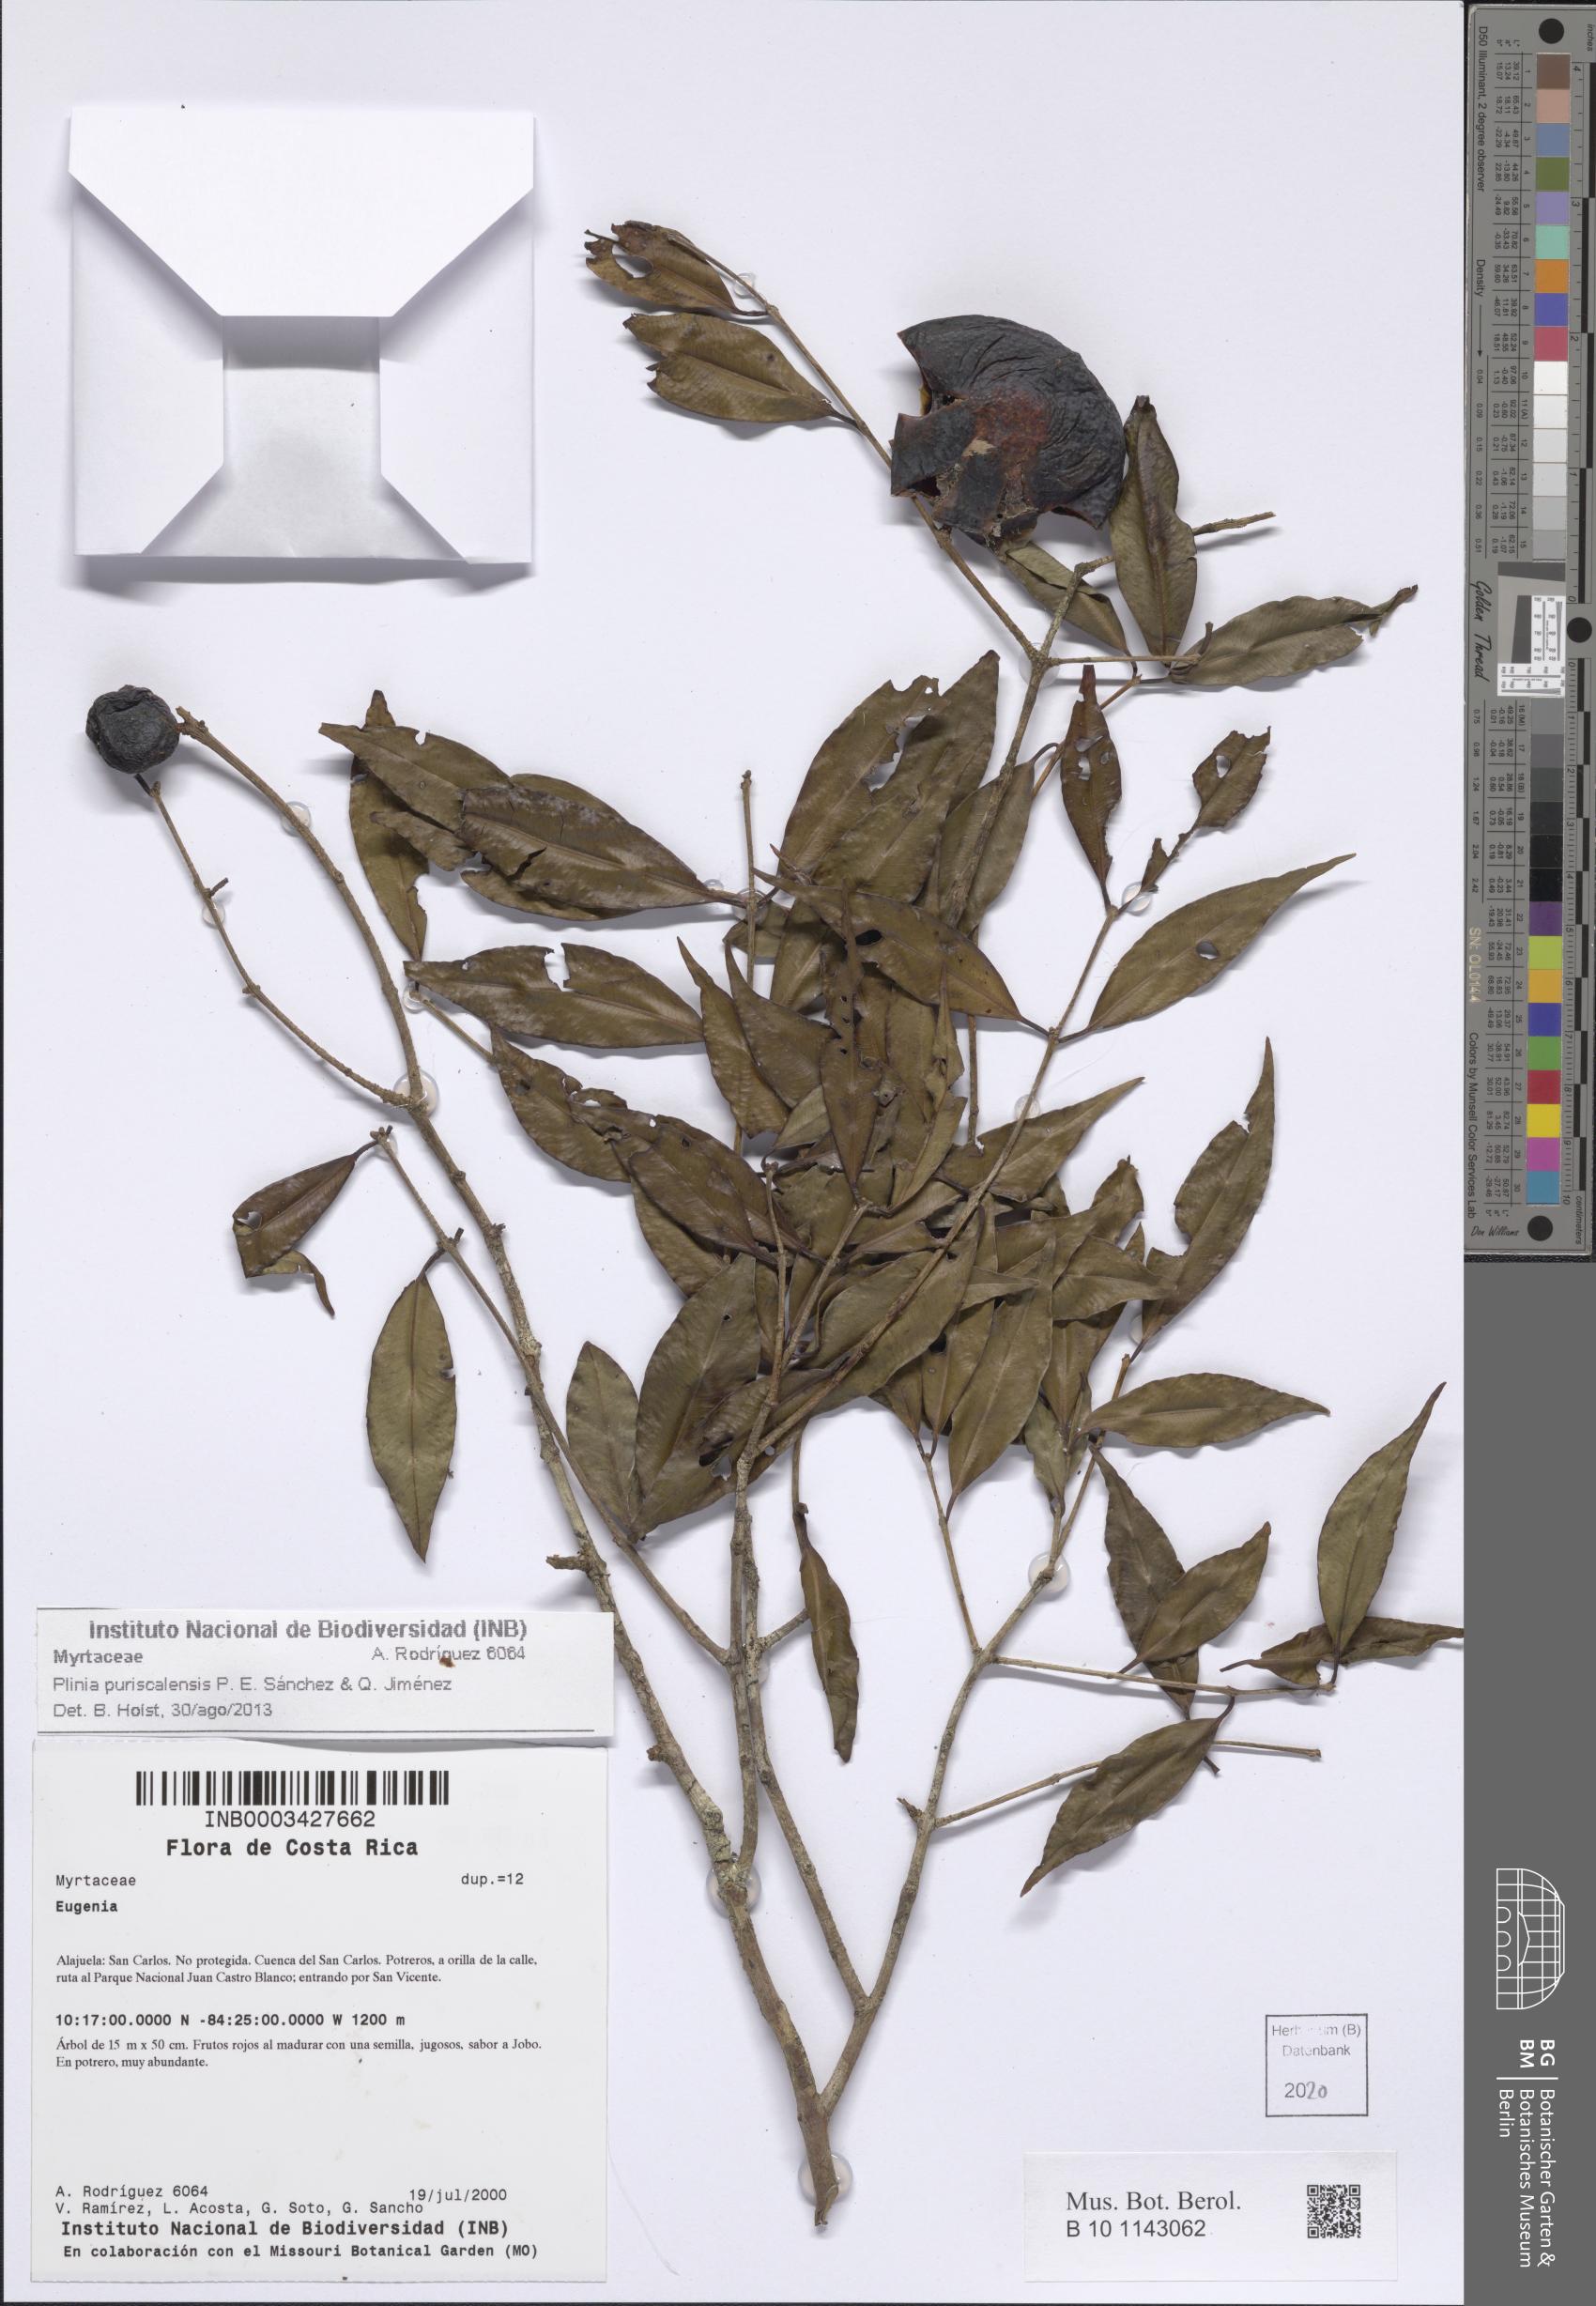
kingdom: Plantae
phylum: Tracheophyta
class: Magnoliopsida
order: Myrtales
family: Myrtaceae
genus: Plinia
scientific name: Plinia puriscalensis
